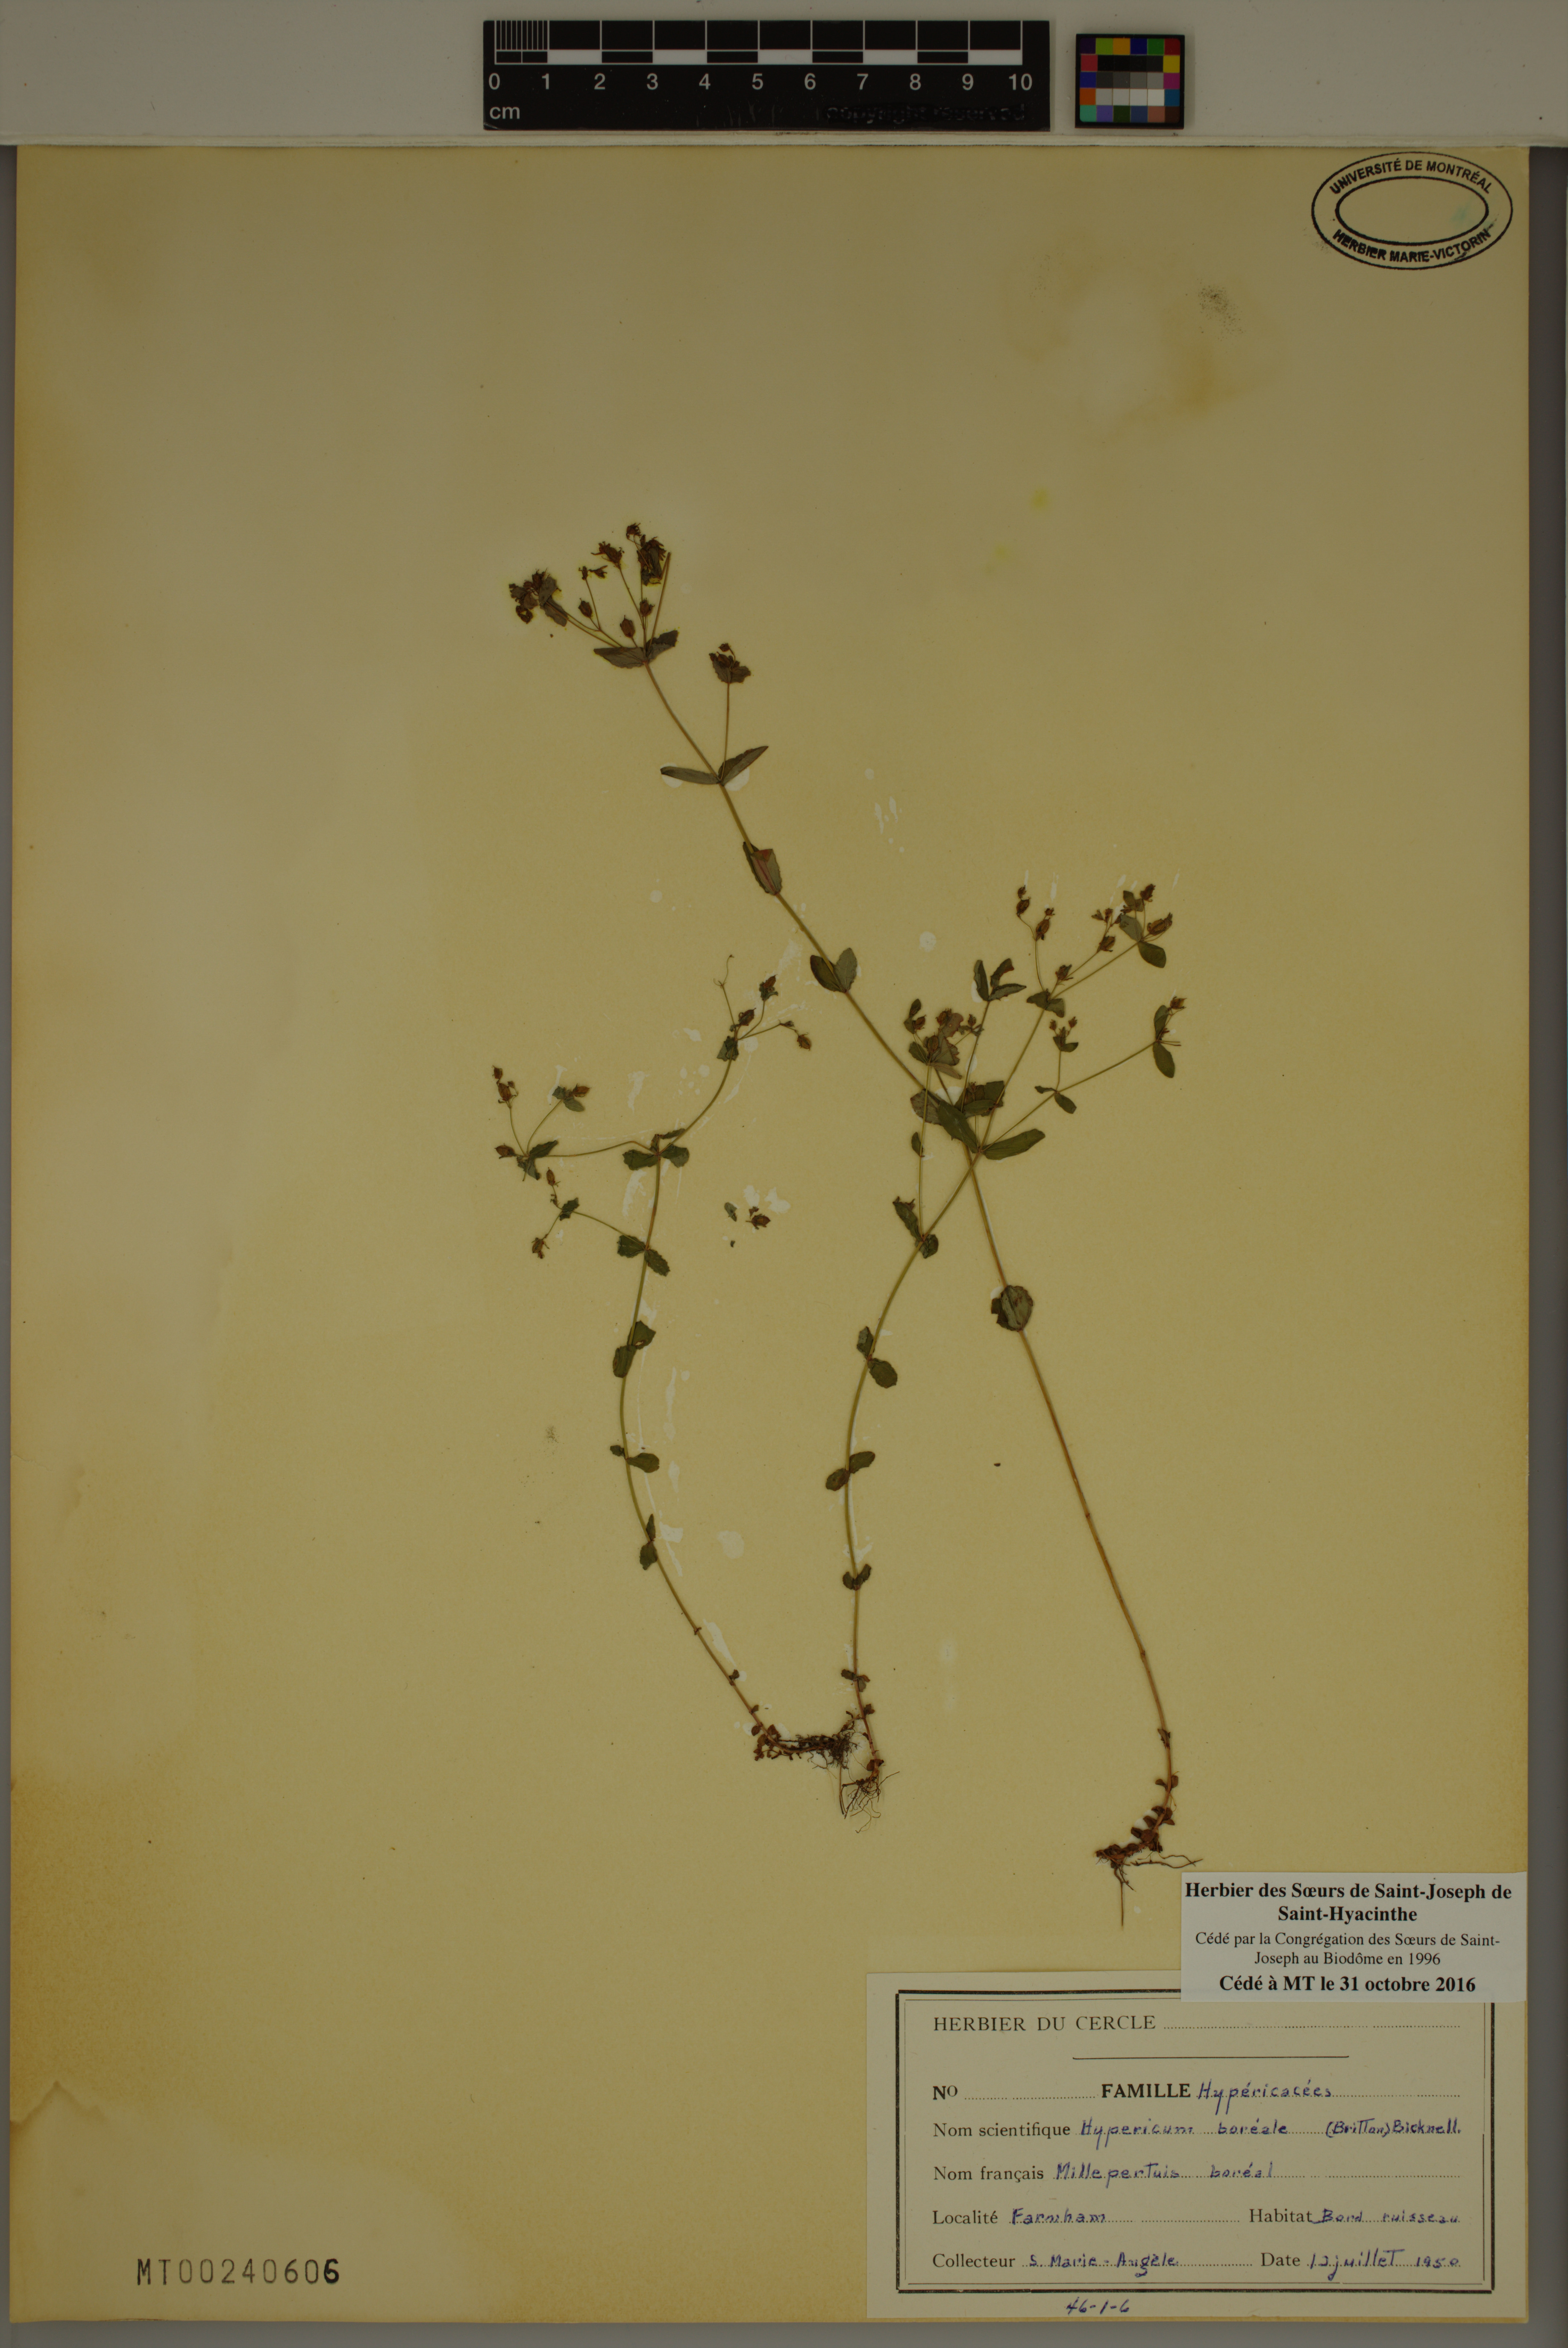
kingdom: Plantae
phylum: Tracheophyta
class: Magnoliopsida
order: Malpighiales
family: Hypericaceae
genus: Hypericum
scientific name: Hypericum boreale
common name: Northern bog st. john's-wort
